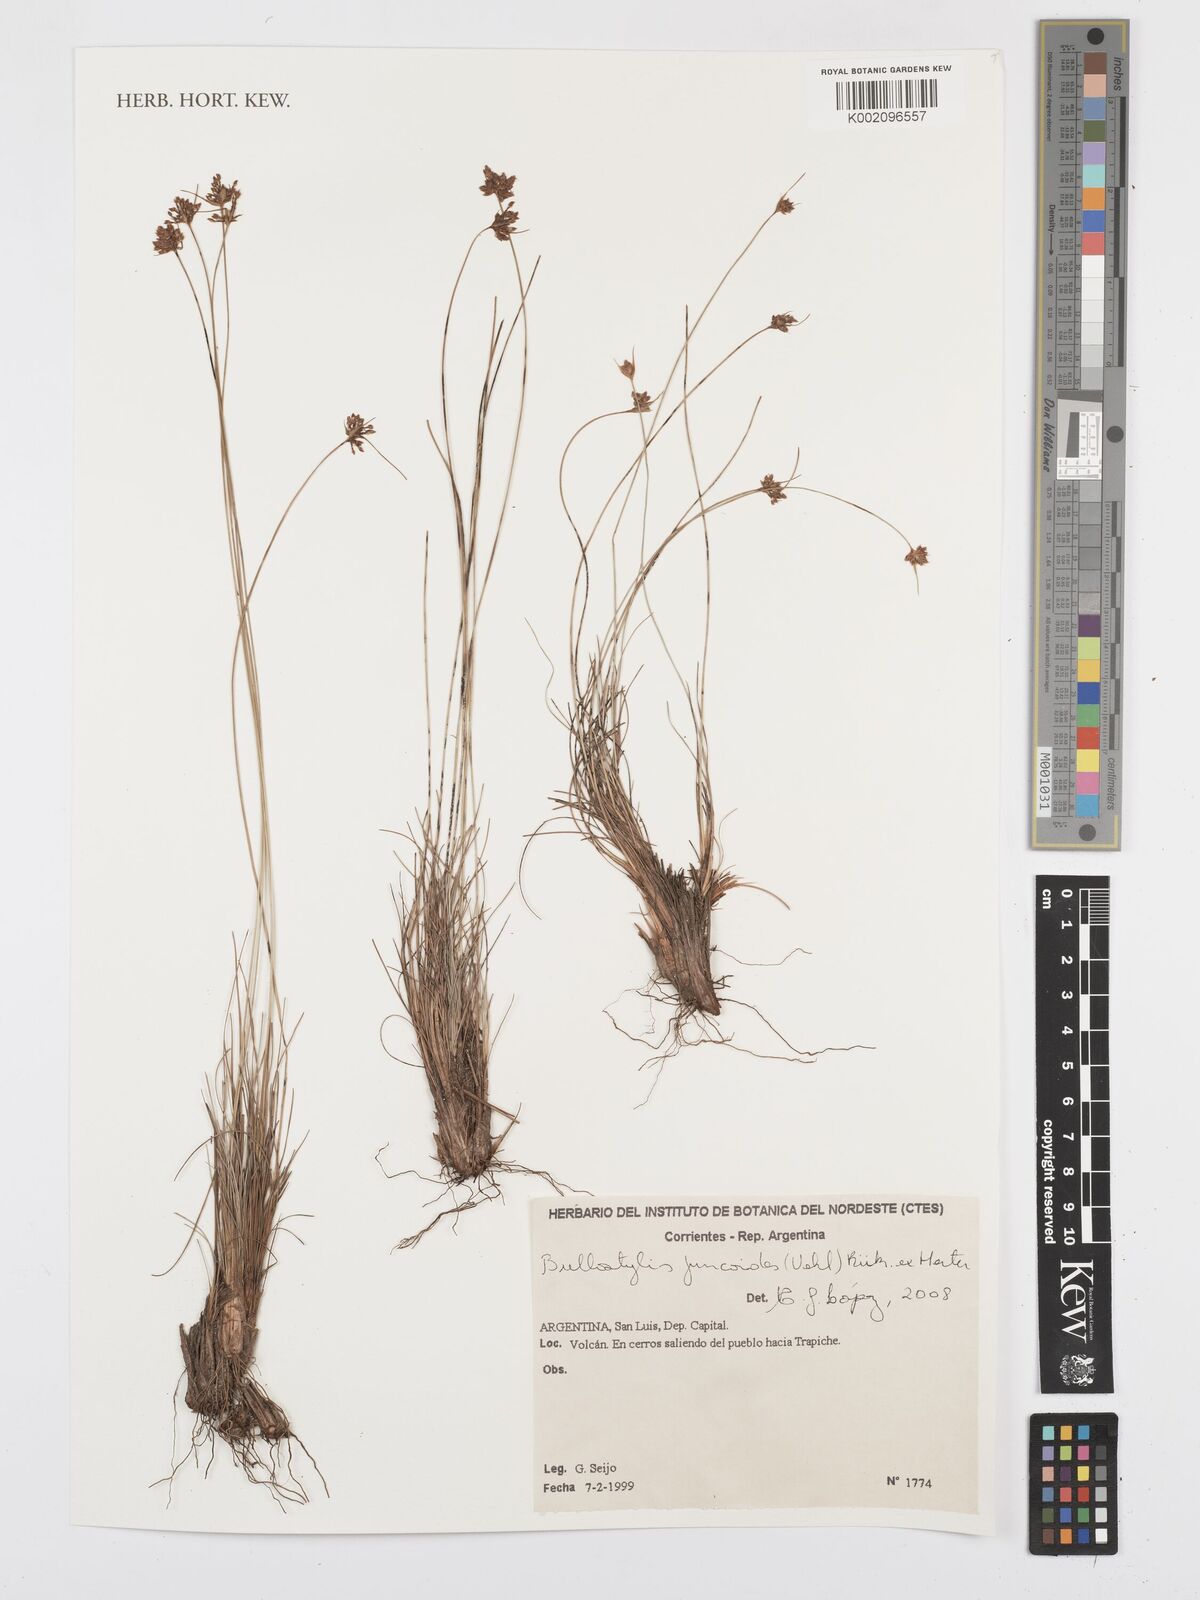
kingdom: Plantae
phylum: Tracheophyta
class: Liliopsida
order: Poales
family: Cyperaceae
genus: Bulbostylis
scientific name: Bulbostylis juncoides
